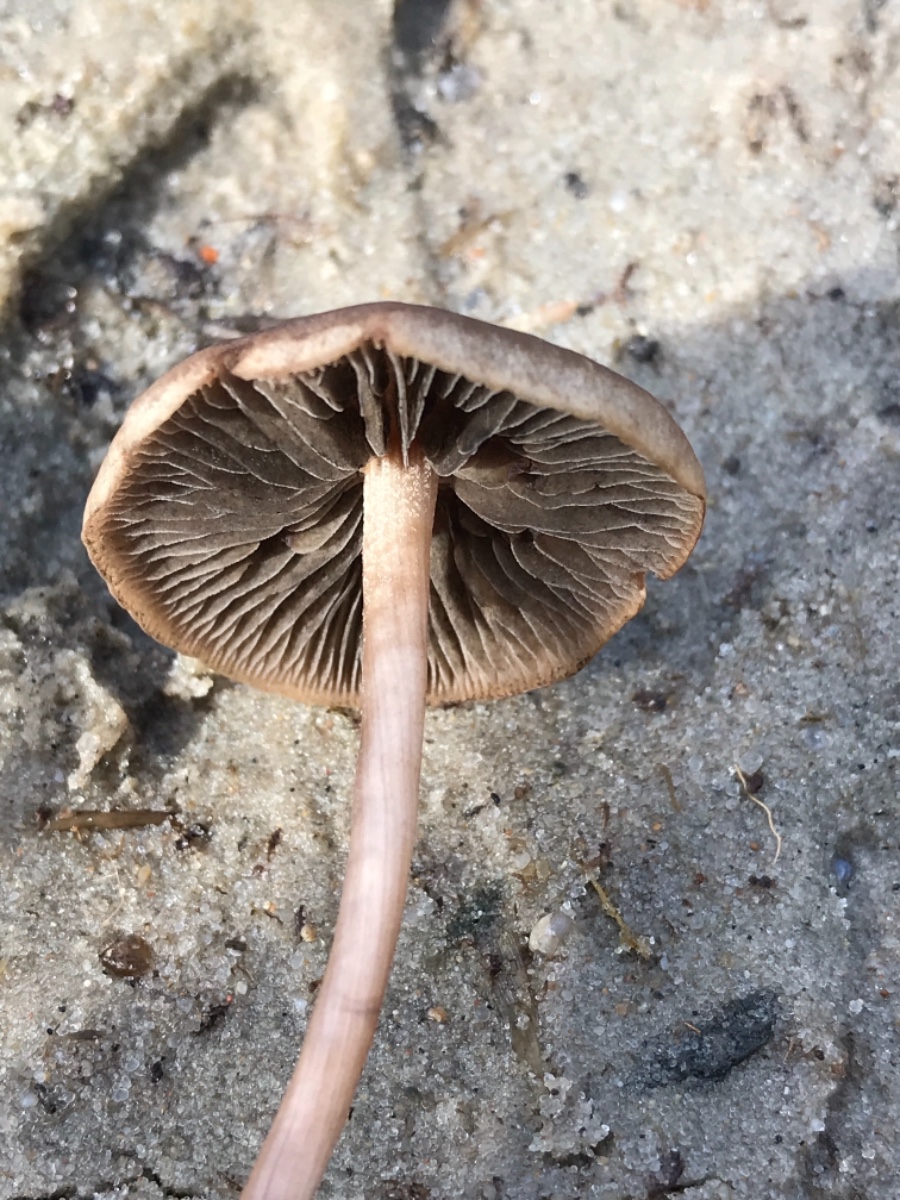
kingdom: Fungi
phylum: Basidiomycota
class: Agaricomycetes
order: Agaricales
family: Bolbitiaceae
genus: Panaeolus
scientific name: Panaeolus
